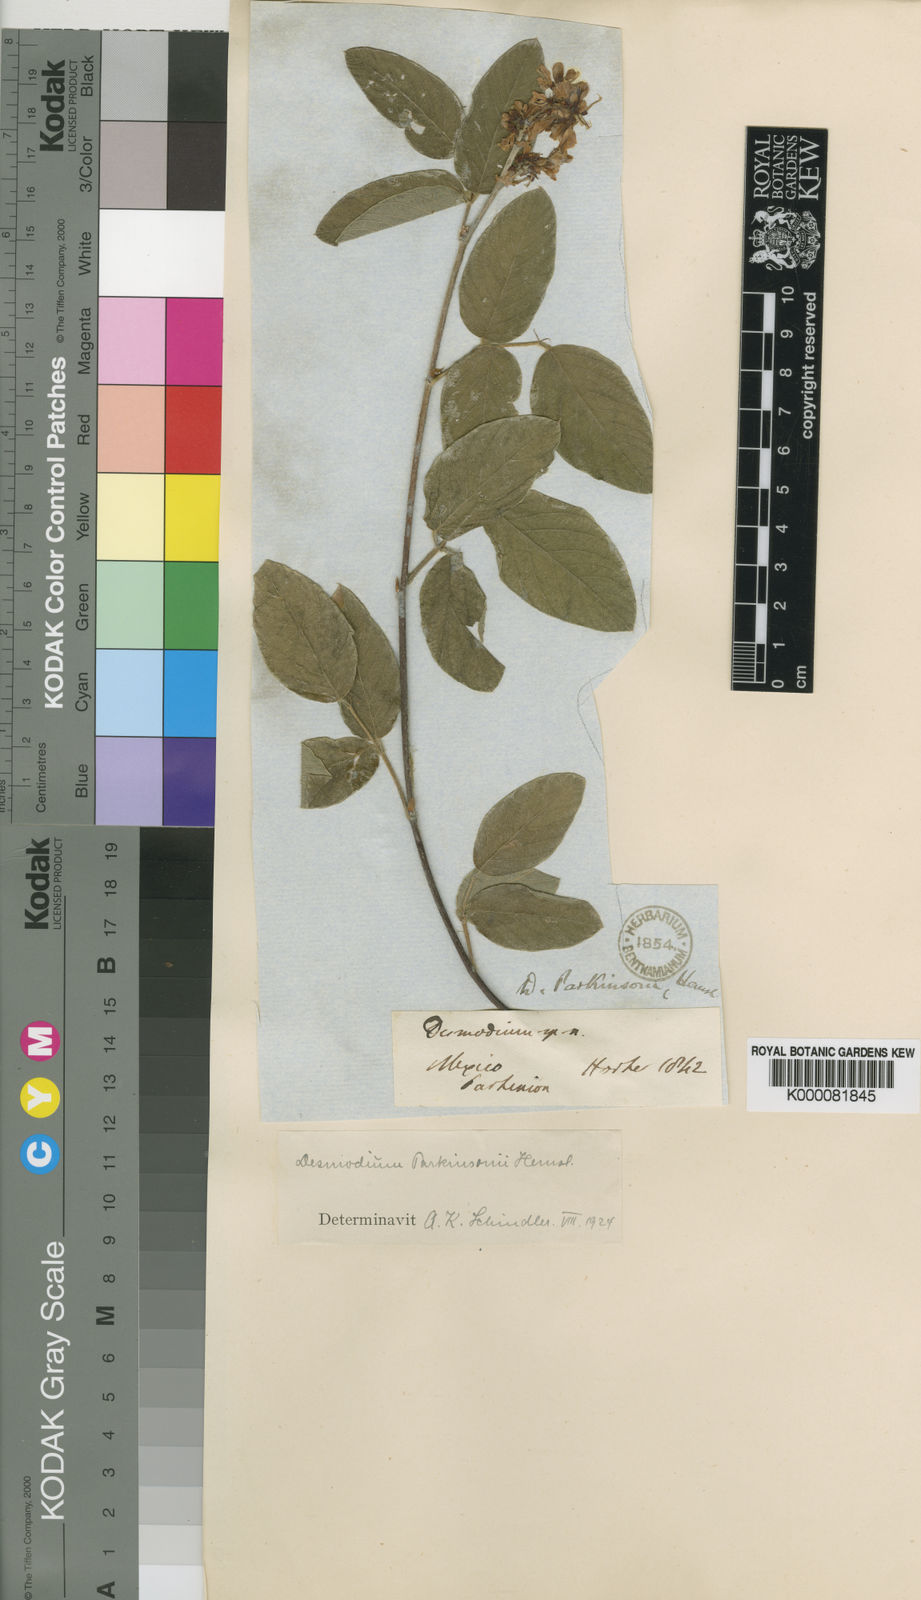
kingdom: Plantae
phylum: Tracheophyta
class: Magnoliopsida
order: Fabales
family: Fabaceae
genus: Desmodium
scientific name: Desmodium parkinsonii
